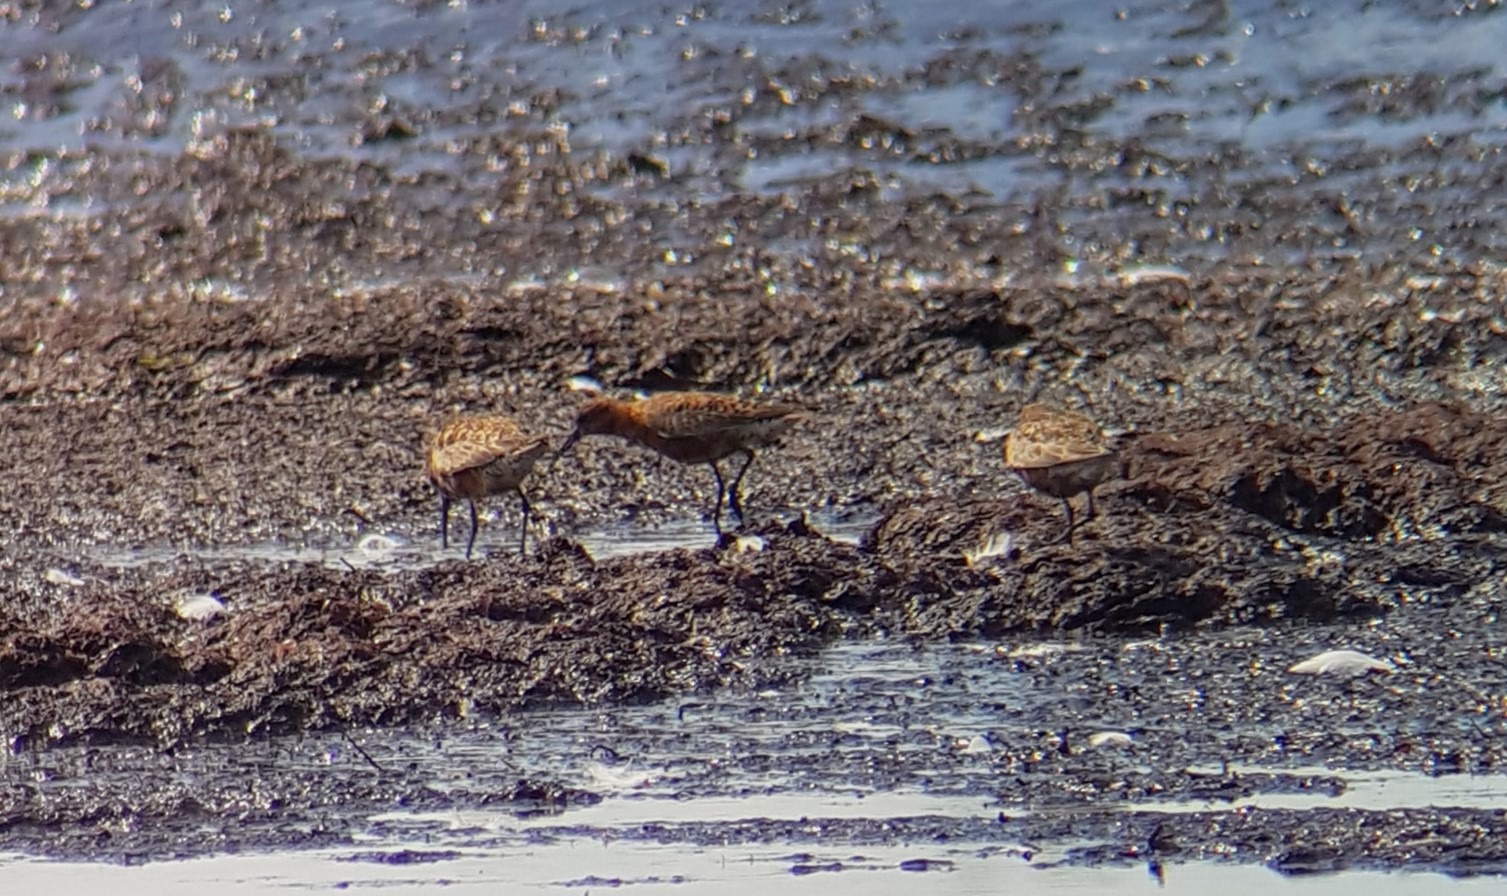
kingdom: Animalia
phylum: Chordata
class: Aves
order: Charadriiformes
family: Scolopacidae
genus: Calidris
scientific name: Calidris ferruginea
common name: Krumnæbbet ryle
